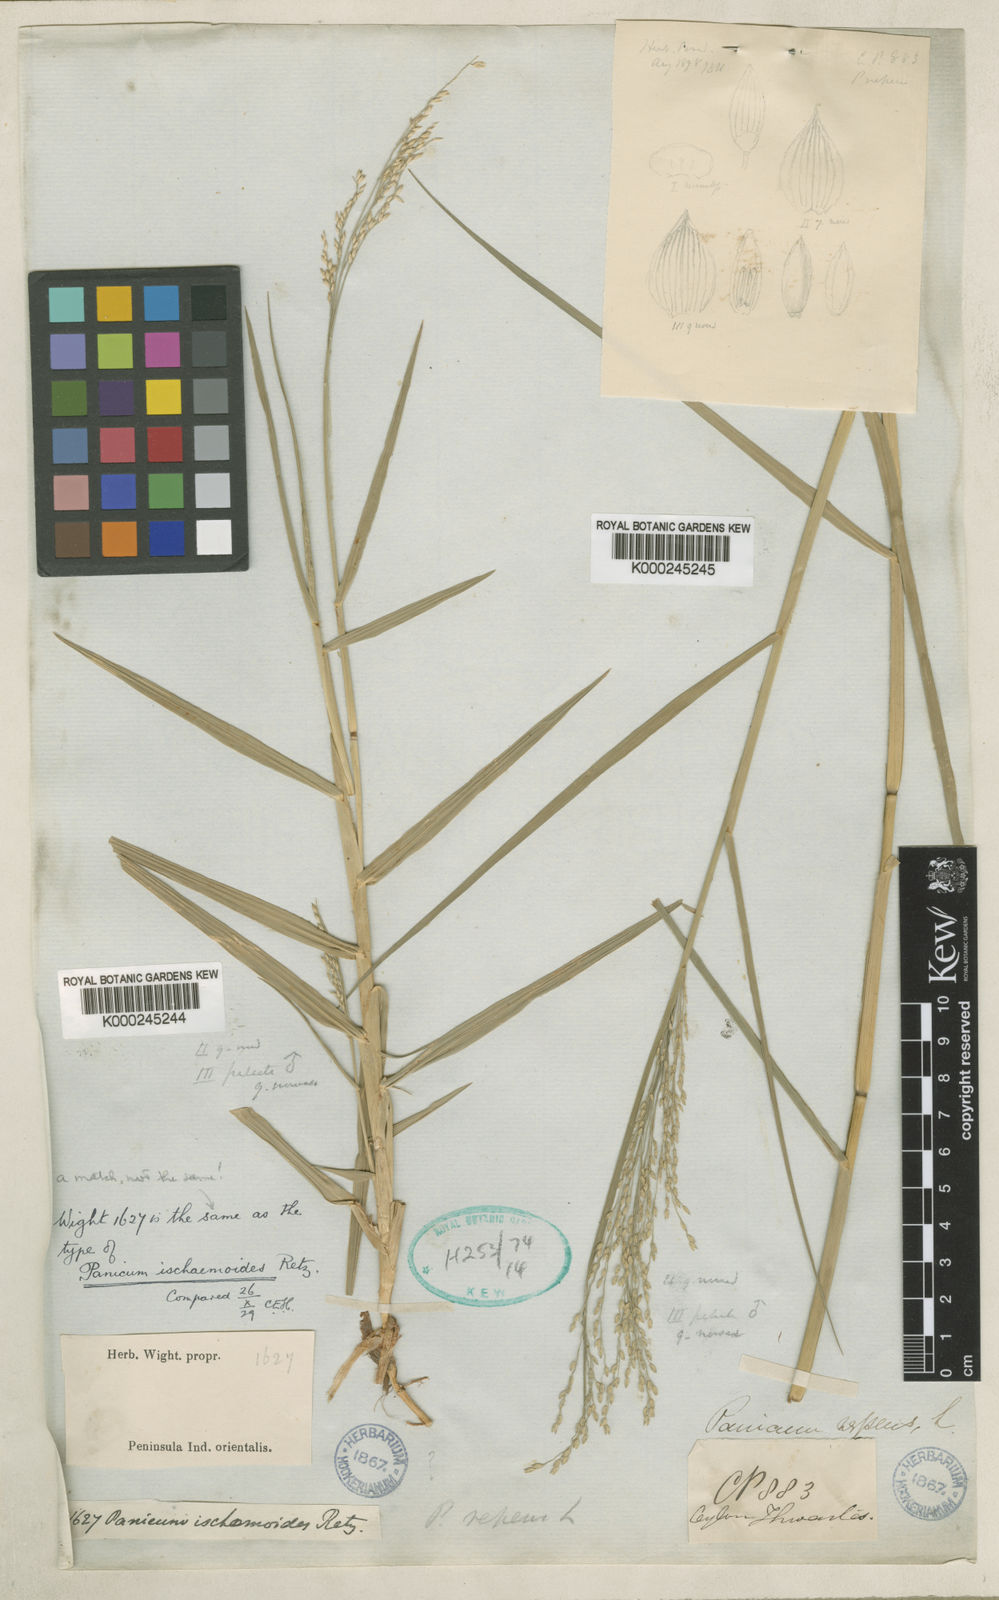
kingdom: Plantae
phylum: Tracheophyta
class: Liliopsida
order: Poales
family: Poaceae
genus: Panicum
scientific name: Panicum repens
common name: Torpedo grass
